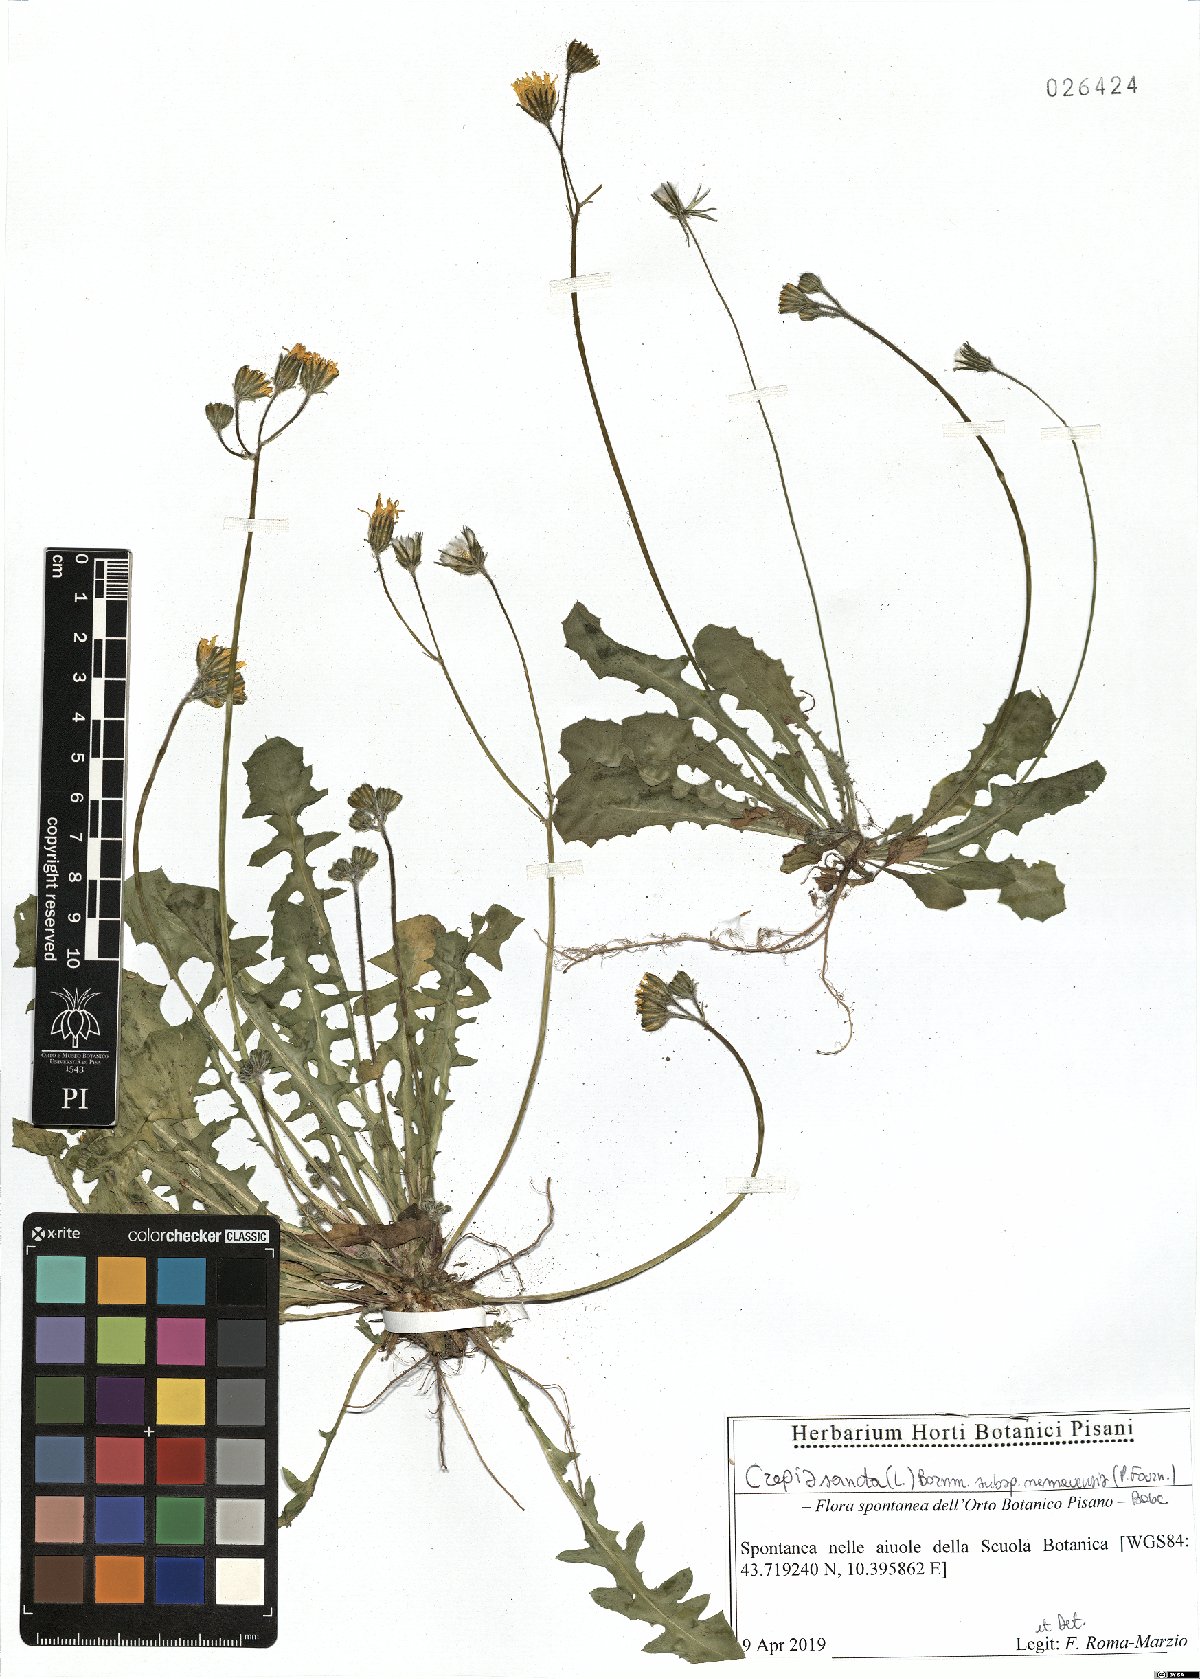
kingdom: Plantae
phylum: Tracheophyta
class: Magnoliopsida
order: Asterales
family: Asteraceae
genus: Crepis
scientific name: Crepis sancta
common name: Hawk's-beard
